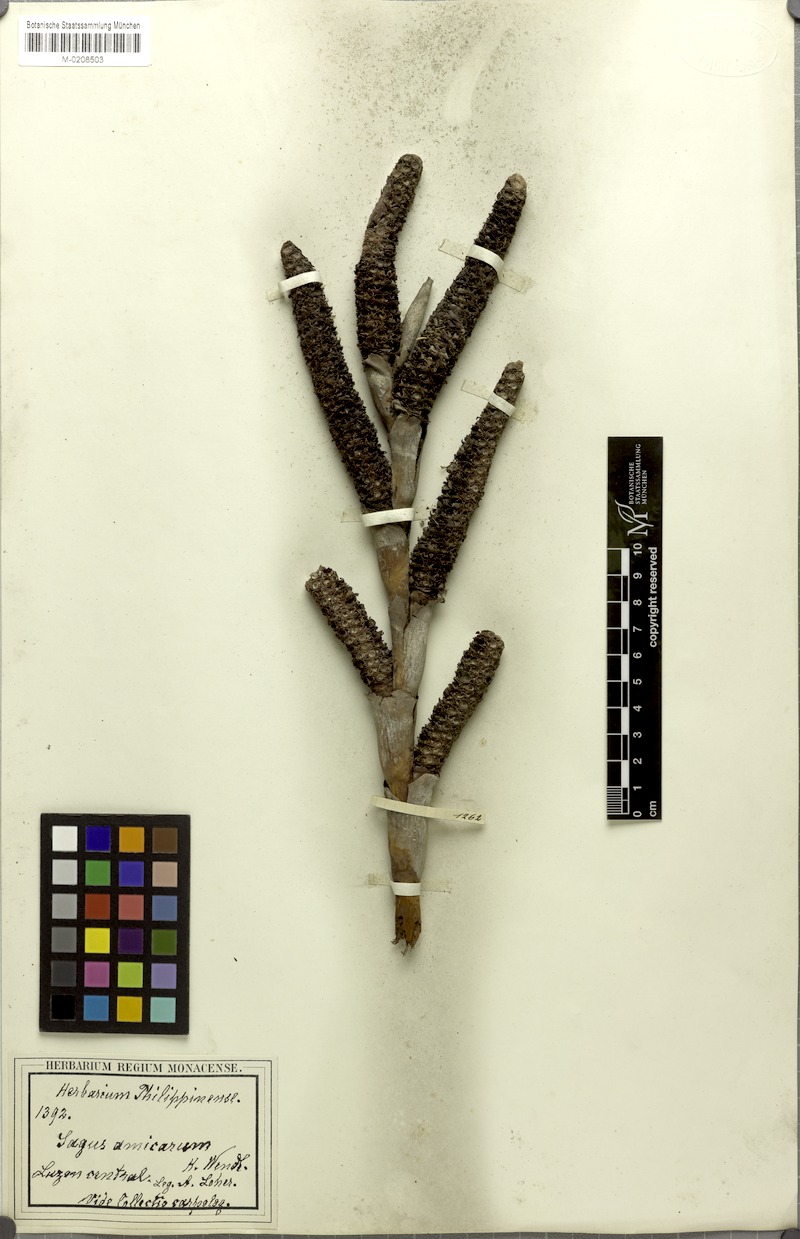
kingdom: Plantae
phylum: Tracheophyta
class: Liliopsida
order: Arecales
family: Arecaceae
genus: Metroxylon
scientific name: Metroxylon amicarum
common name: Caroline ivory nut
